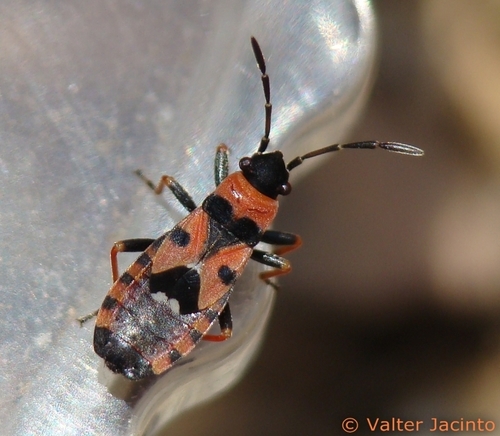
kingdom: Animalia
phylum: Arthropoda
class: Insecta
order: Hemiptera
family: Lygaeidae
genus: Horvathiolus
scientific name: Horvathiolus guttatus
